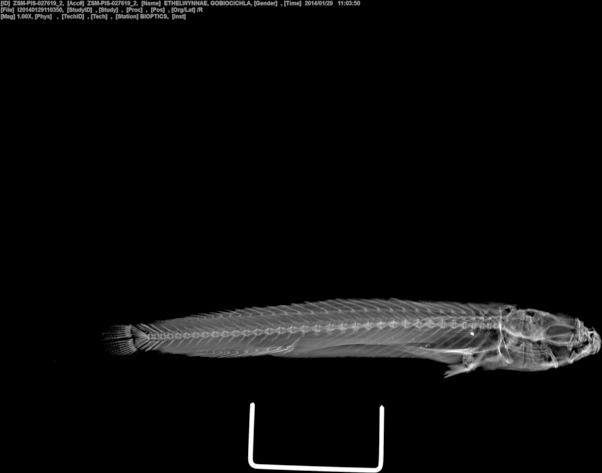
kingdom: Animalia
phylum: Chordata
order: Perciformes
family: Cichlidae
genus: Gobiocichla
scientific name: Gobiocichla ethelwynnae
